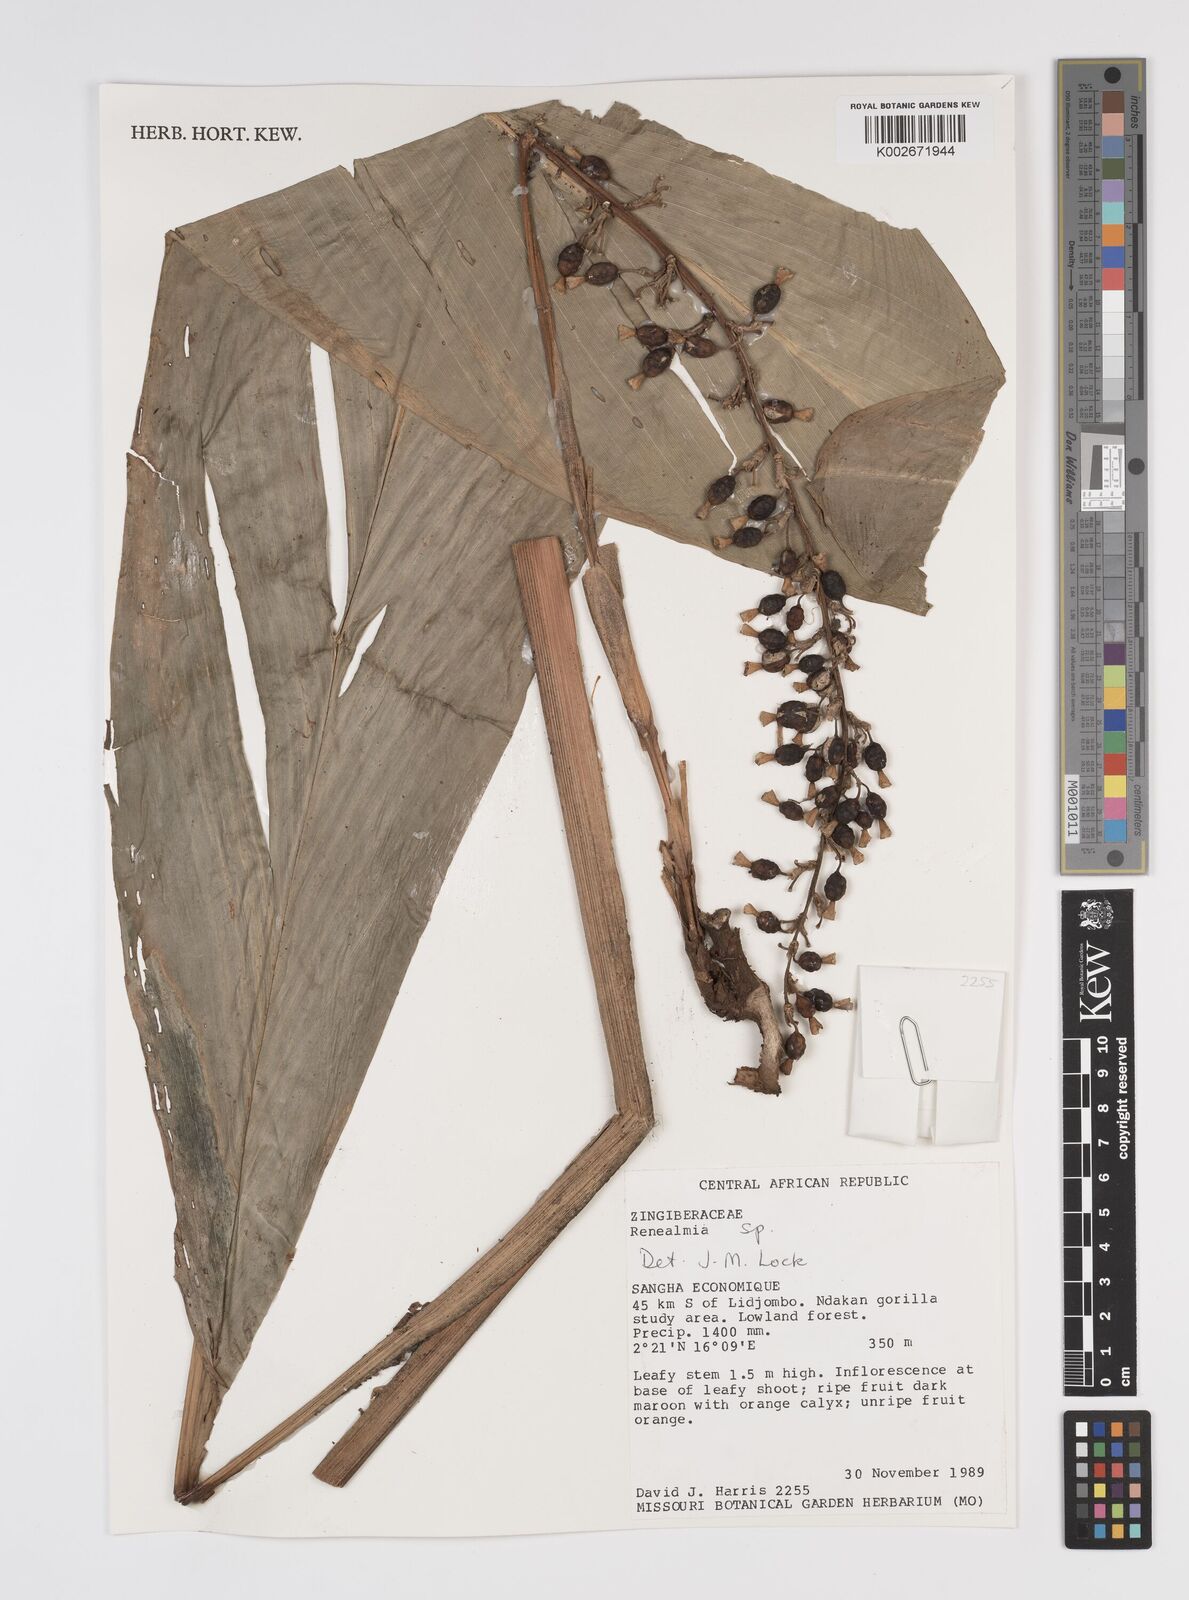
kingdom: Plantae
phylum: Tracheophyta
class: Liliopsida
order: Zingiberales
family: Zingiberaceae
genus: Renealmia
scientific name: Renealmia
